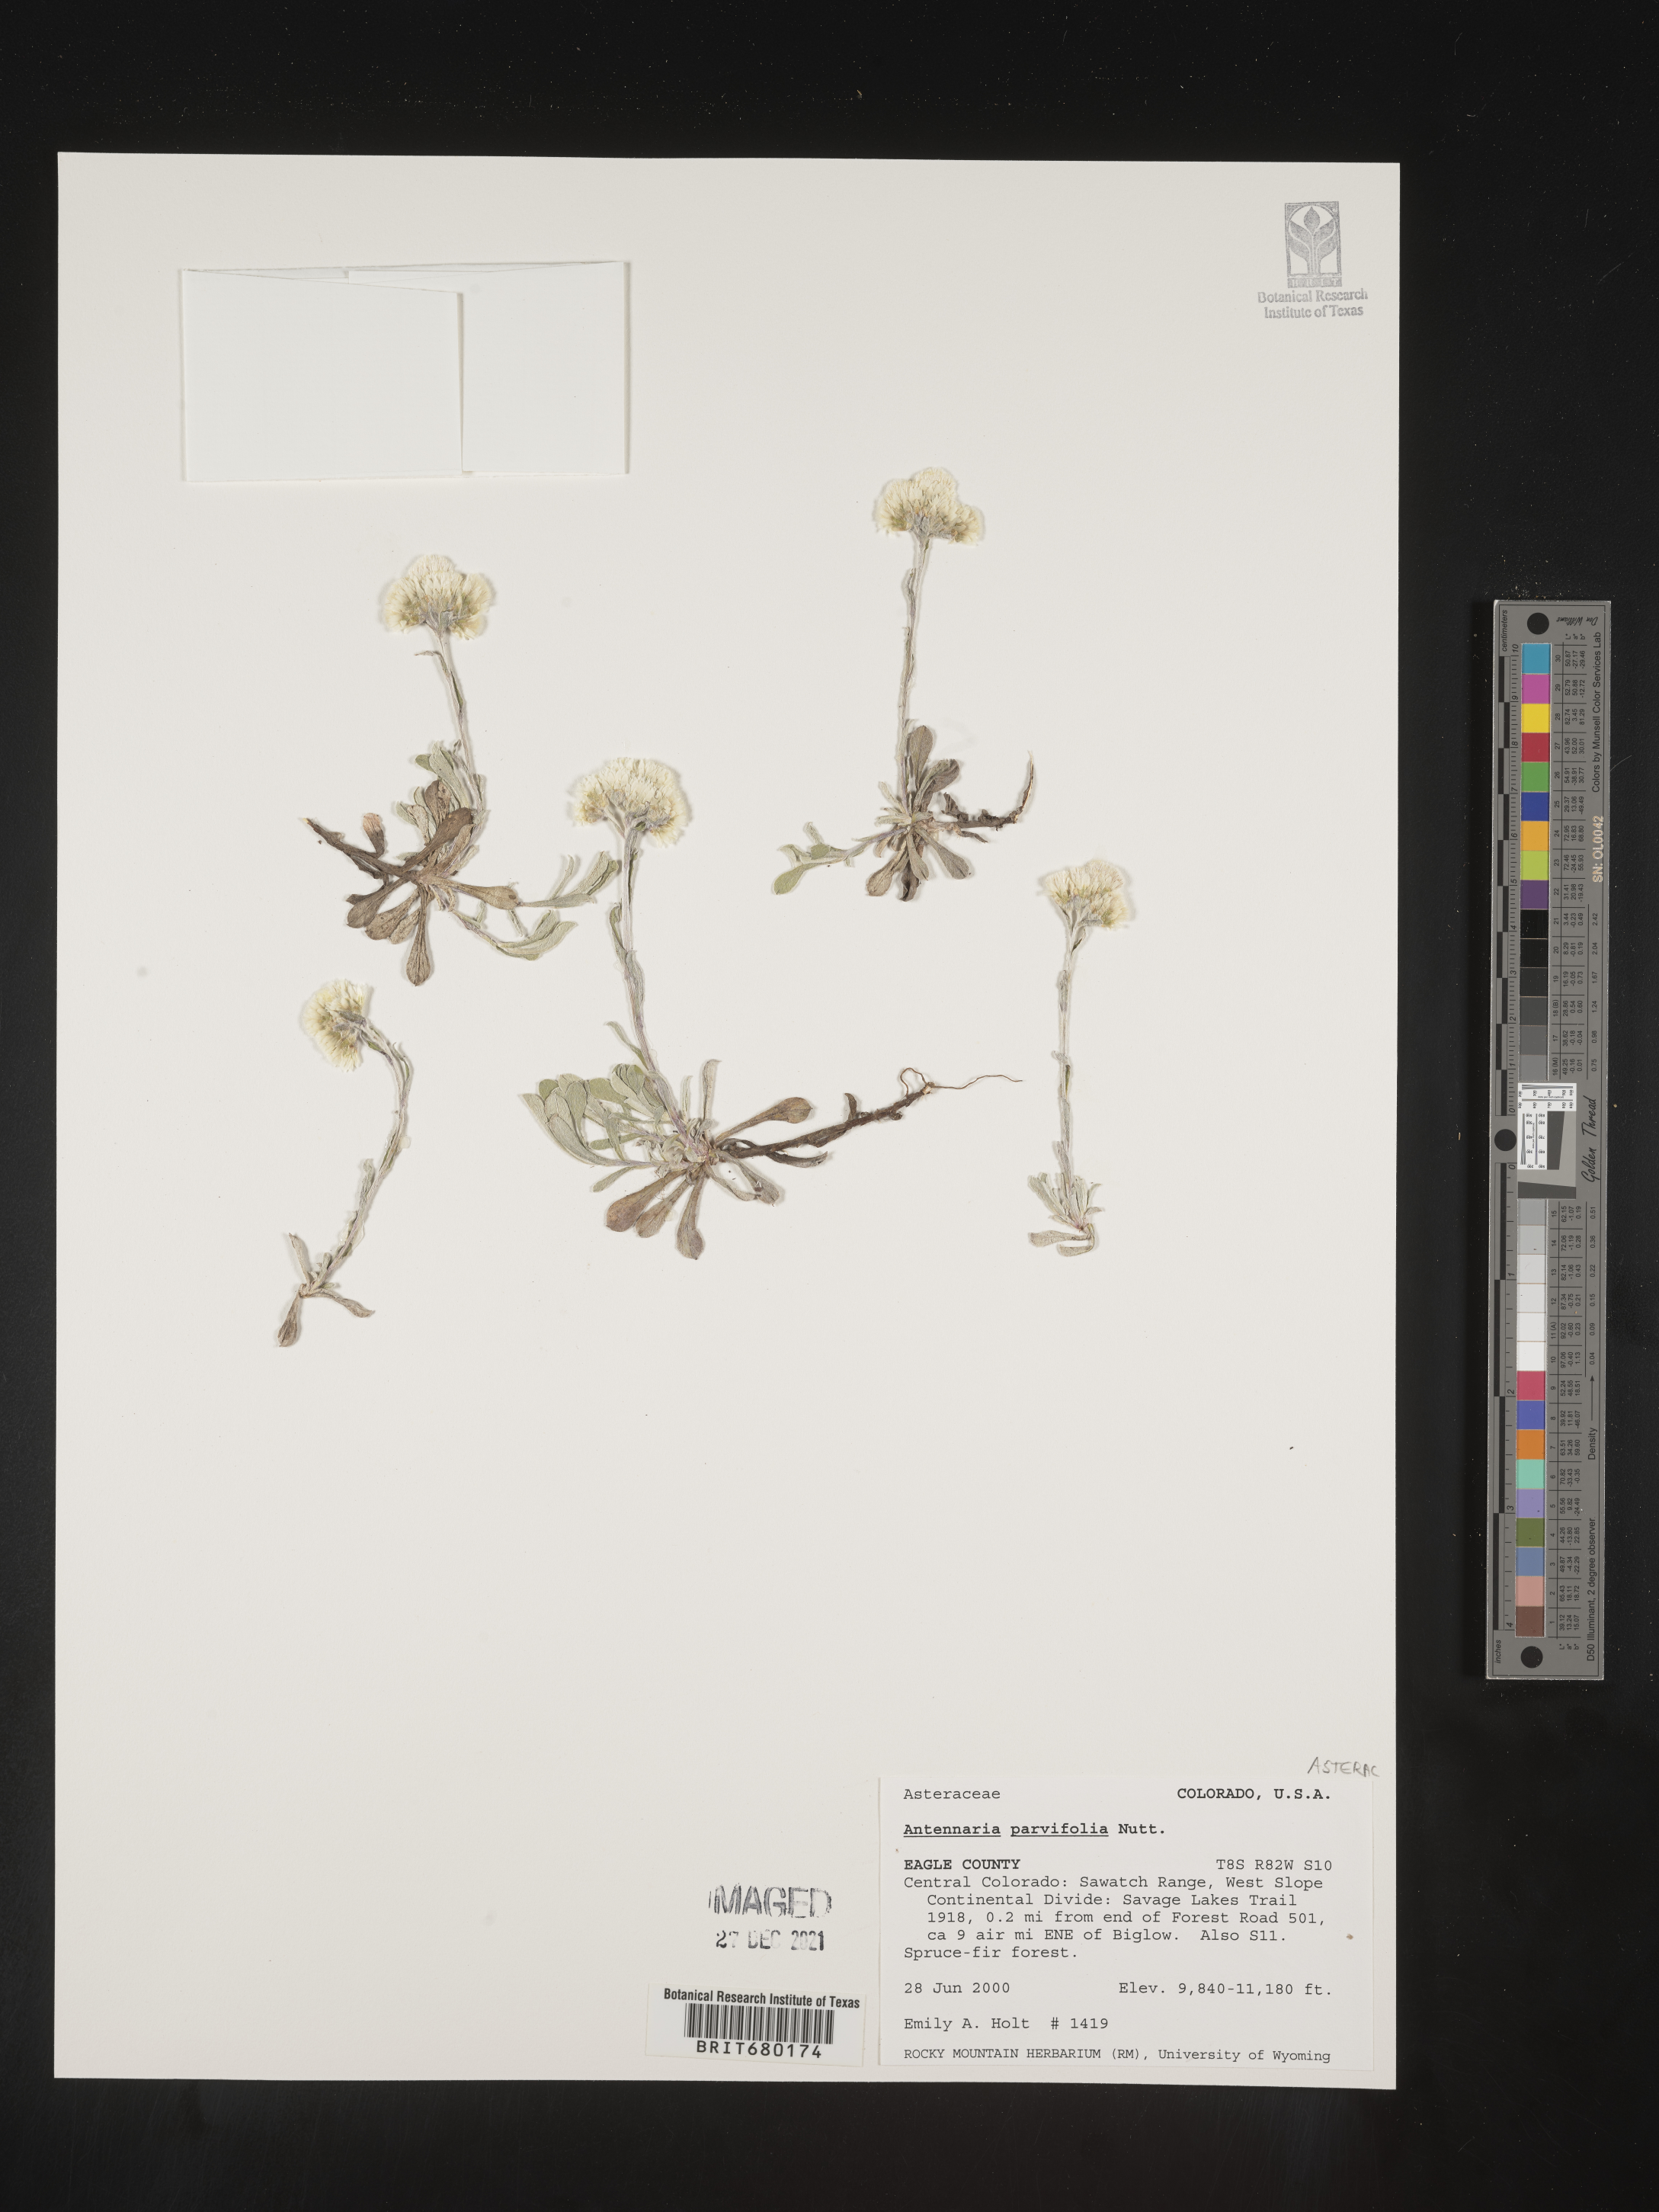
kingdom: Plantae
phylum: Tracheophyta
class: Magnoliopsida
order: Asterales
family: Asteraceae
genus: Antennaria
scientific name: Antennaria plantaginifolia
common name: Plantain-leaved pussytoes
